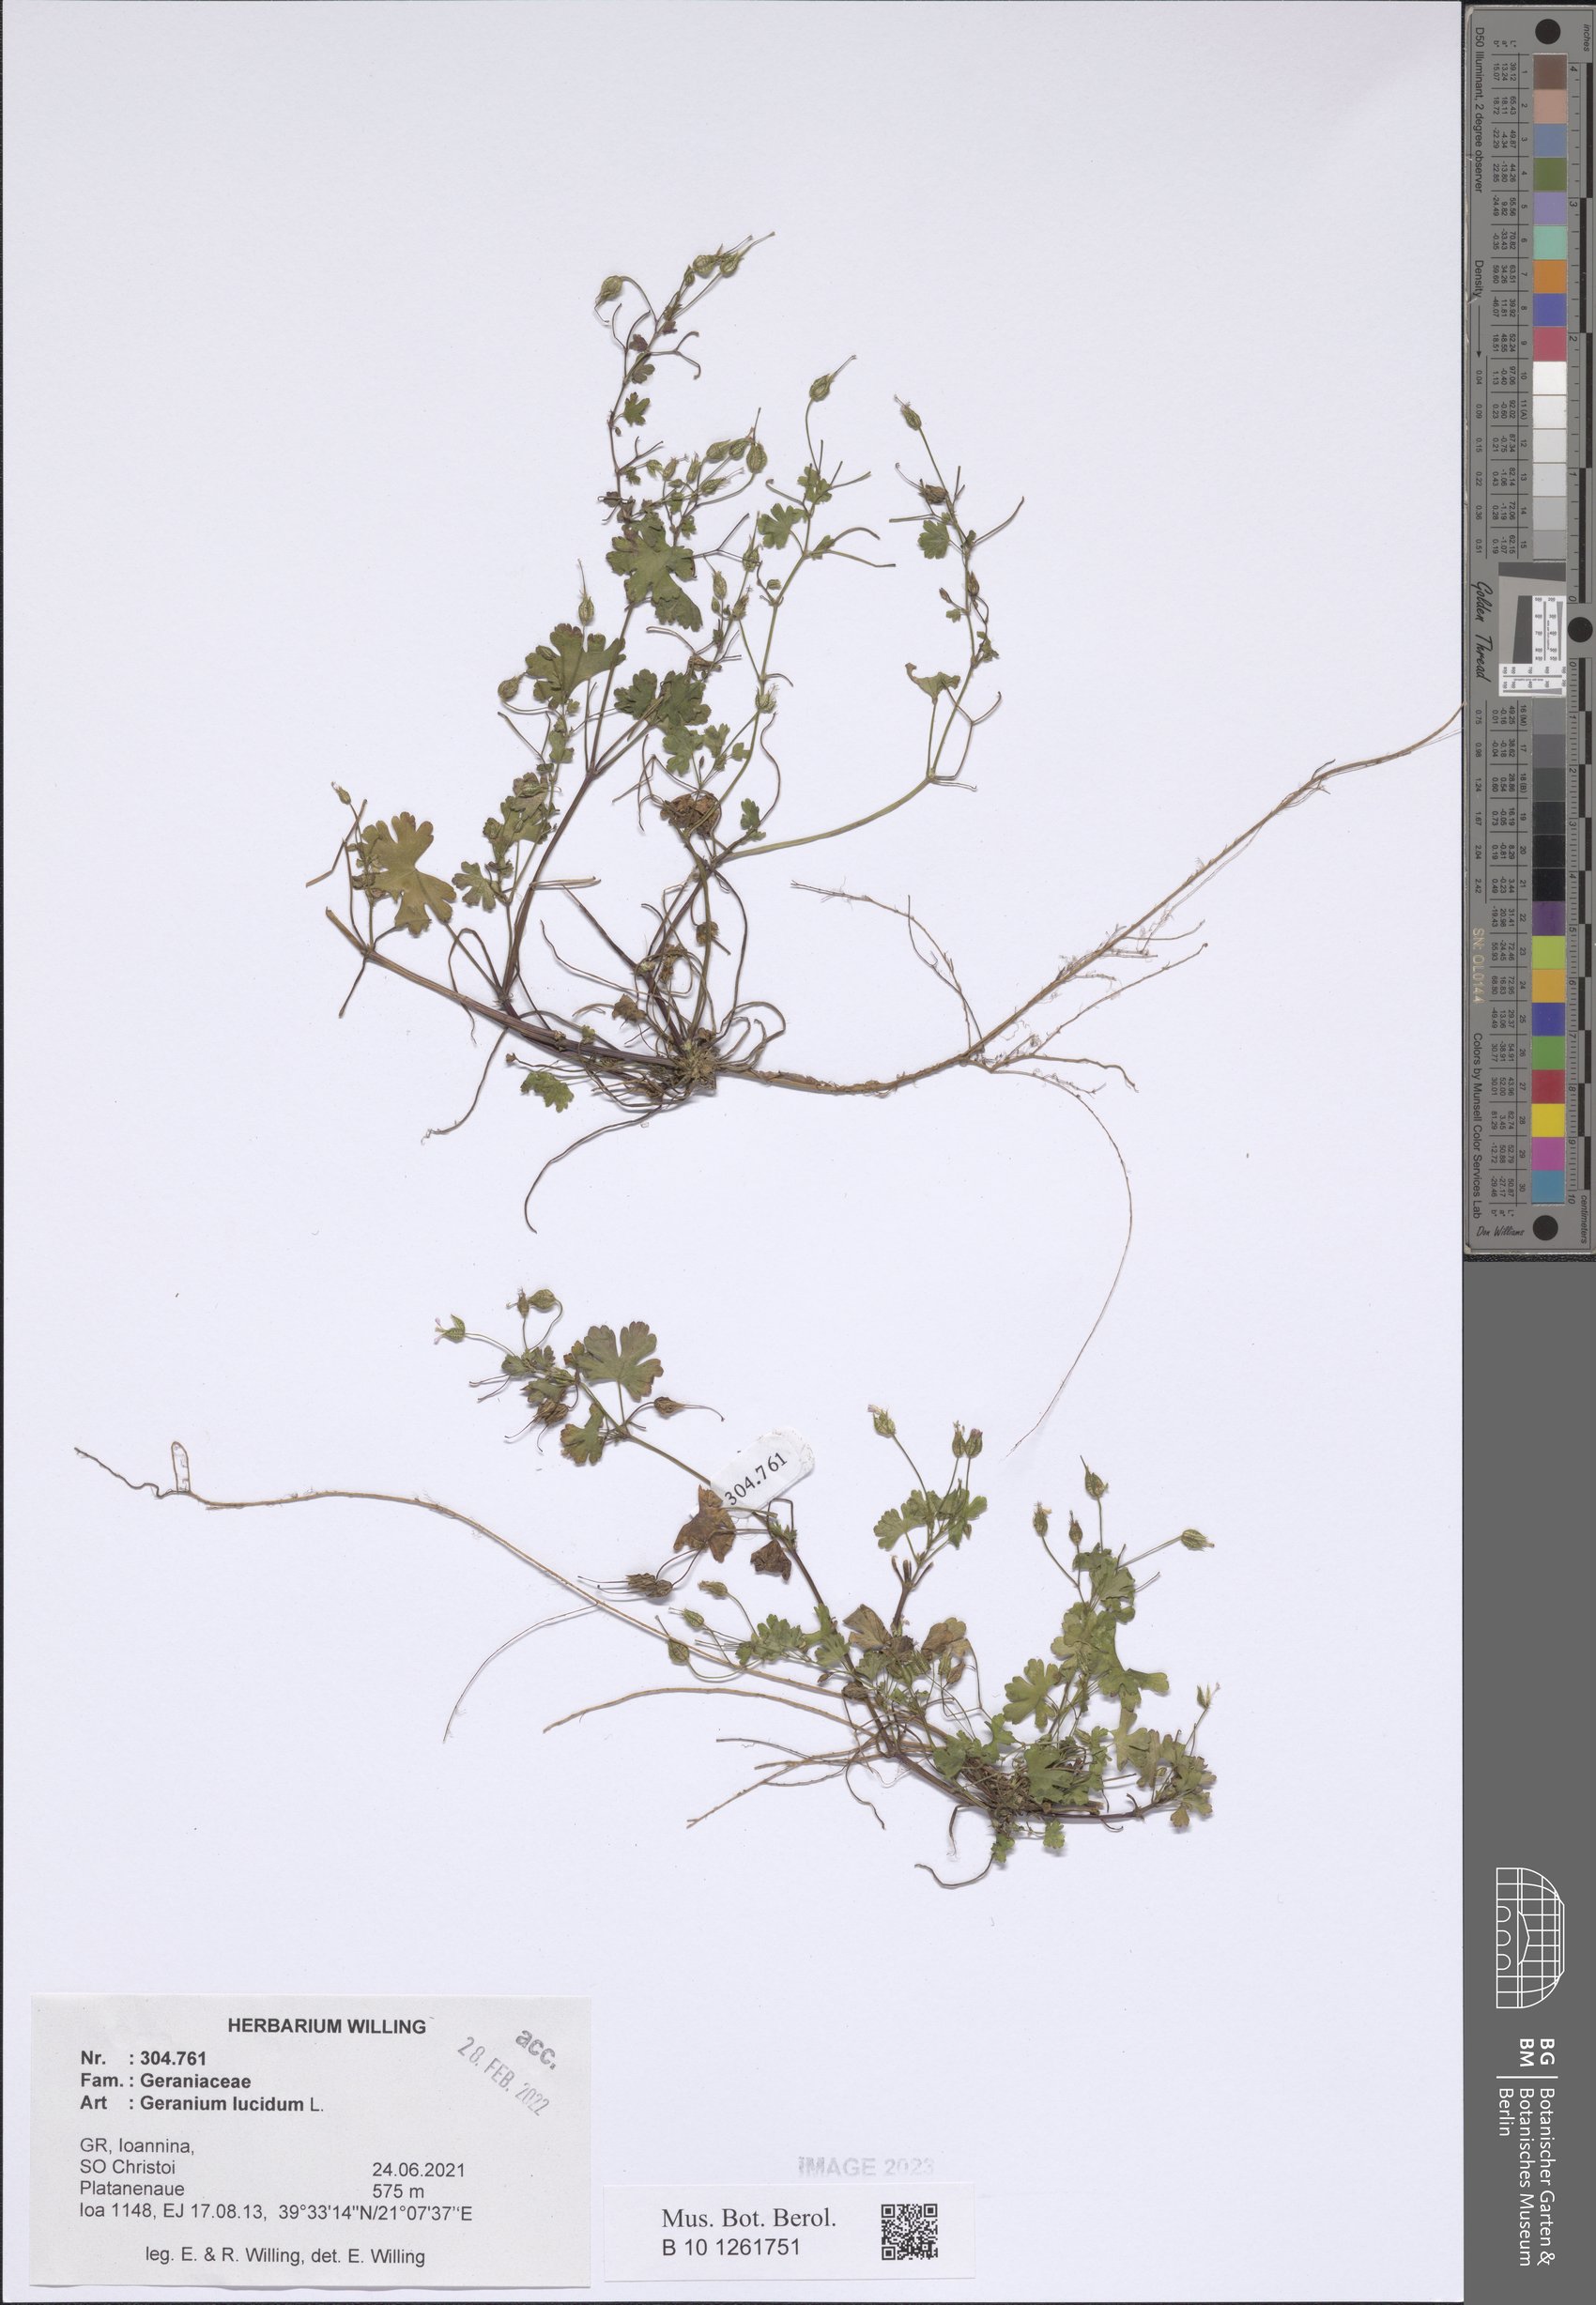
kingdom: Plantae
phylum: Tracheophyta
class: Magnoliopsida
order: Geraniales
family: Geraniaceae
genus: Geranium
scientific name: Geranium lucidum
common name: Shining crane's-bill
